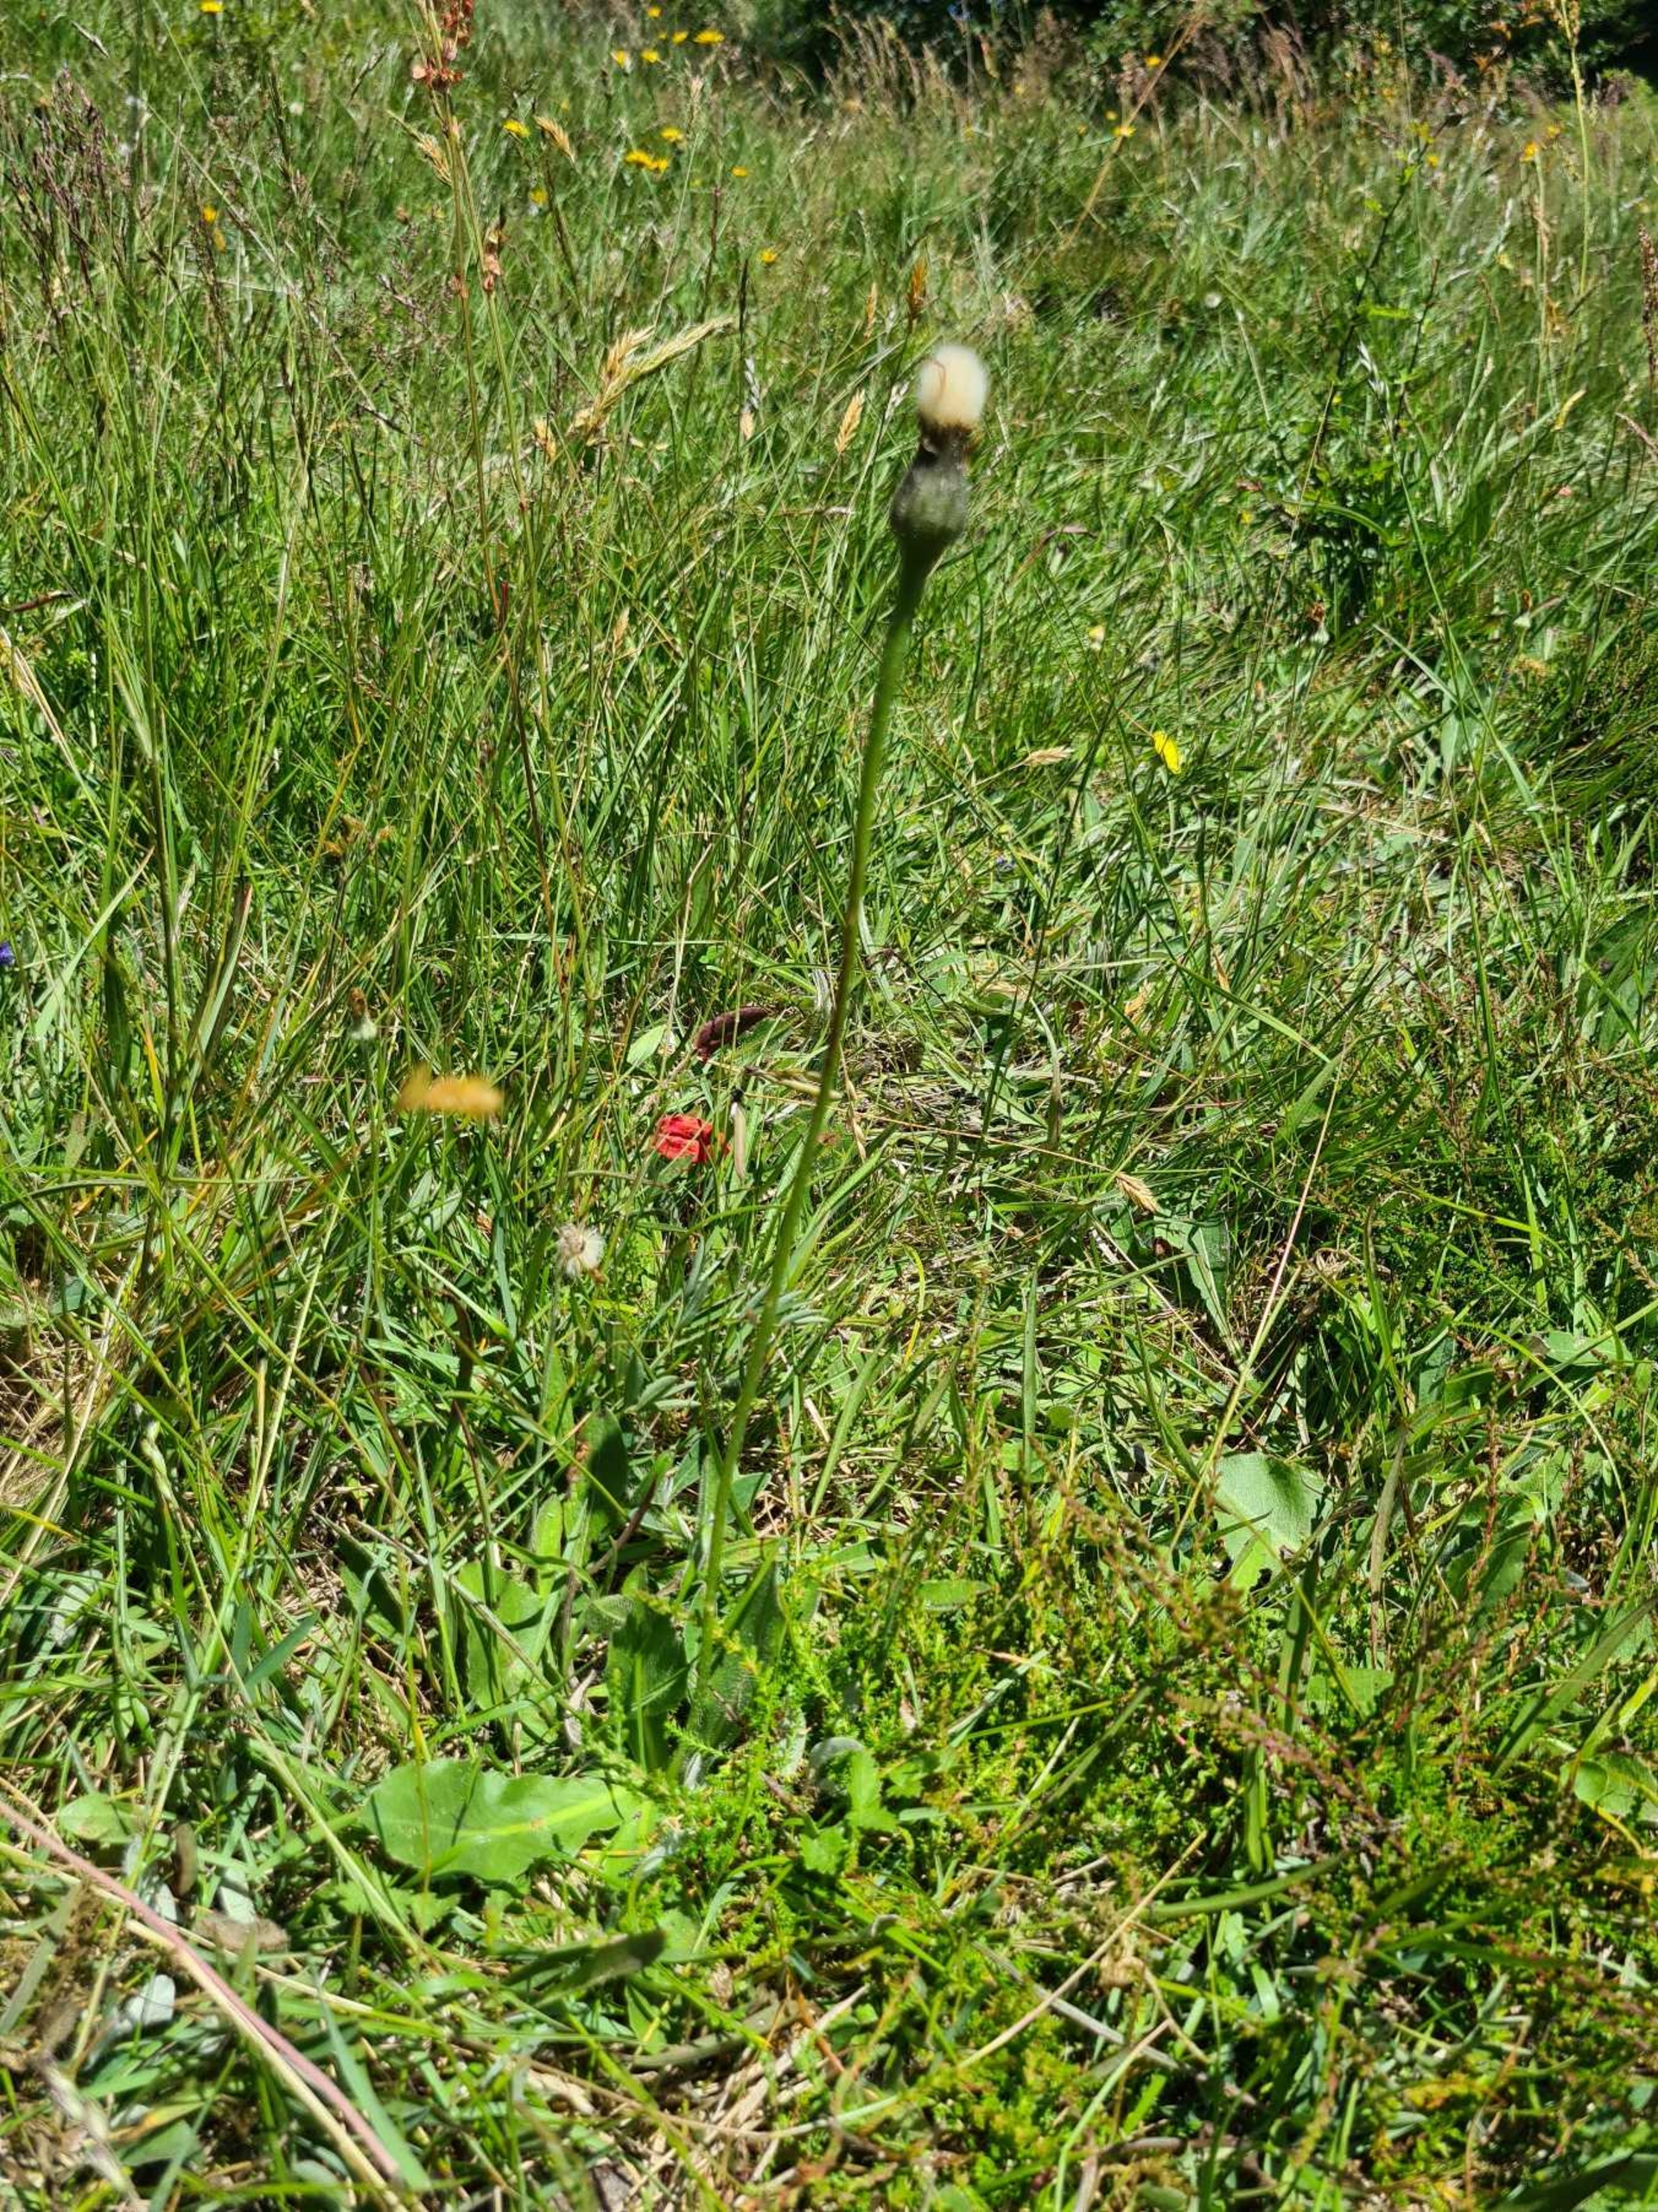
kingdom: Plantae
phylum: Tracheophyta
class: Magnoliopsida
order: Asterales
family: Asteraceae
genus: Trommsdorffia
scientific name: Trommsdorffia maculata
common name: Plettet kongepen
